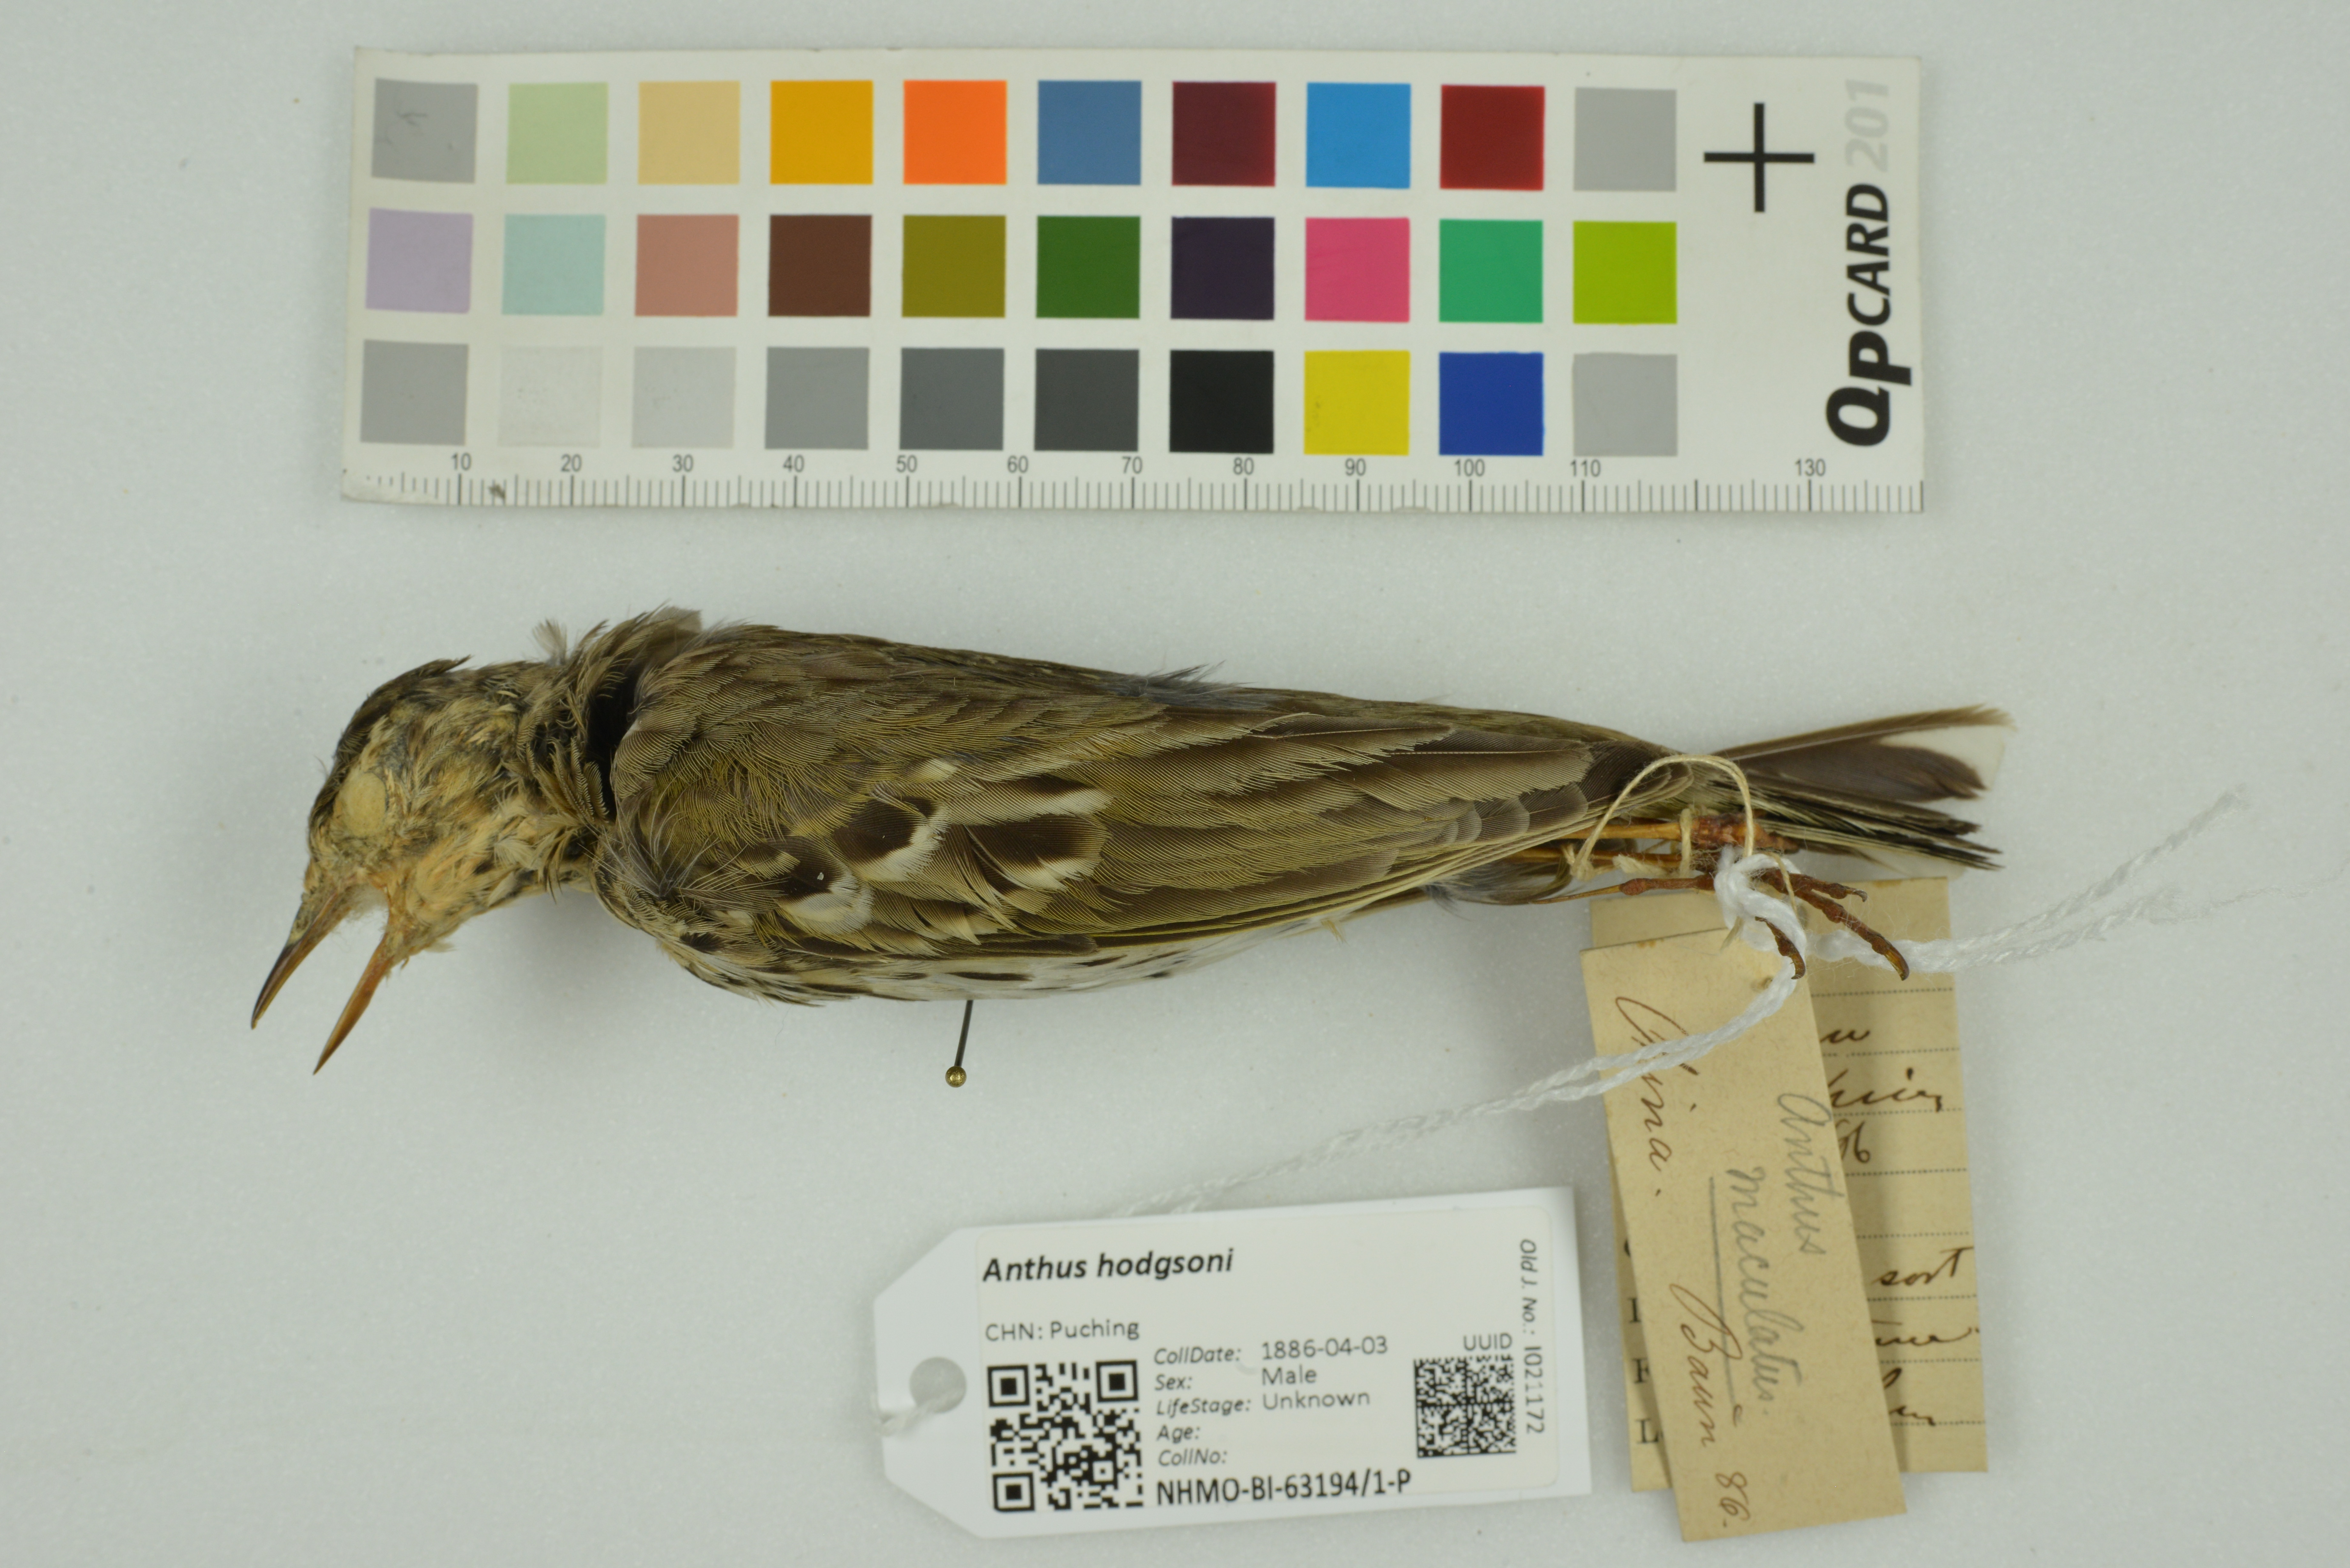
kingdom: Animalia
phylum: Chordata
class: Aves
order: Passeriformes
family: Motacillidae
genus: Anthus
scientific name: Anthus hodgsoni
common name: Olive-backed pipit
